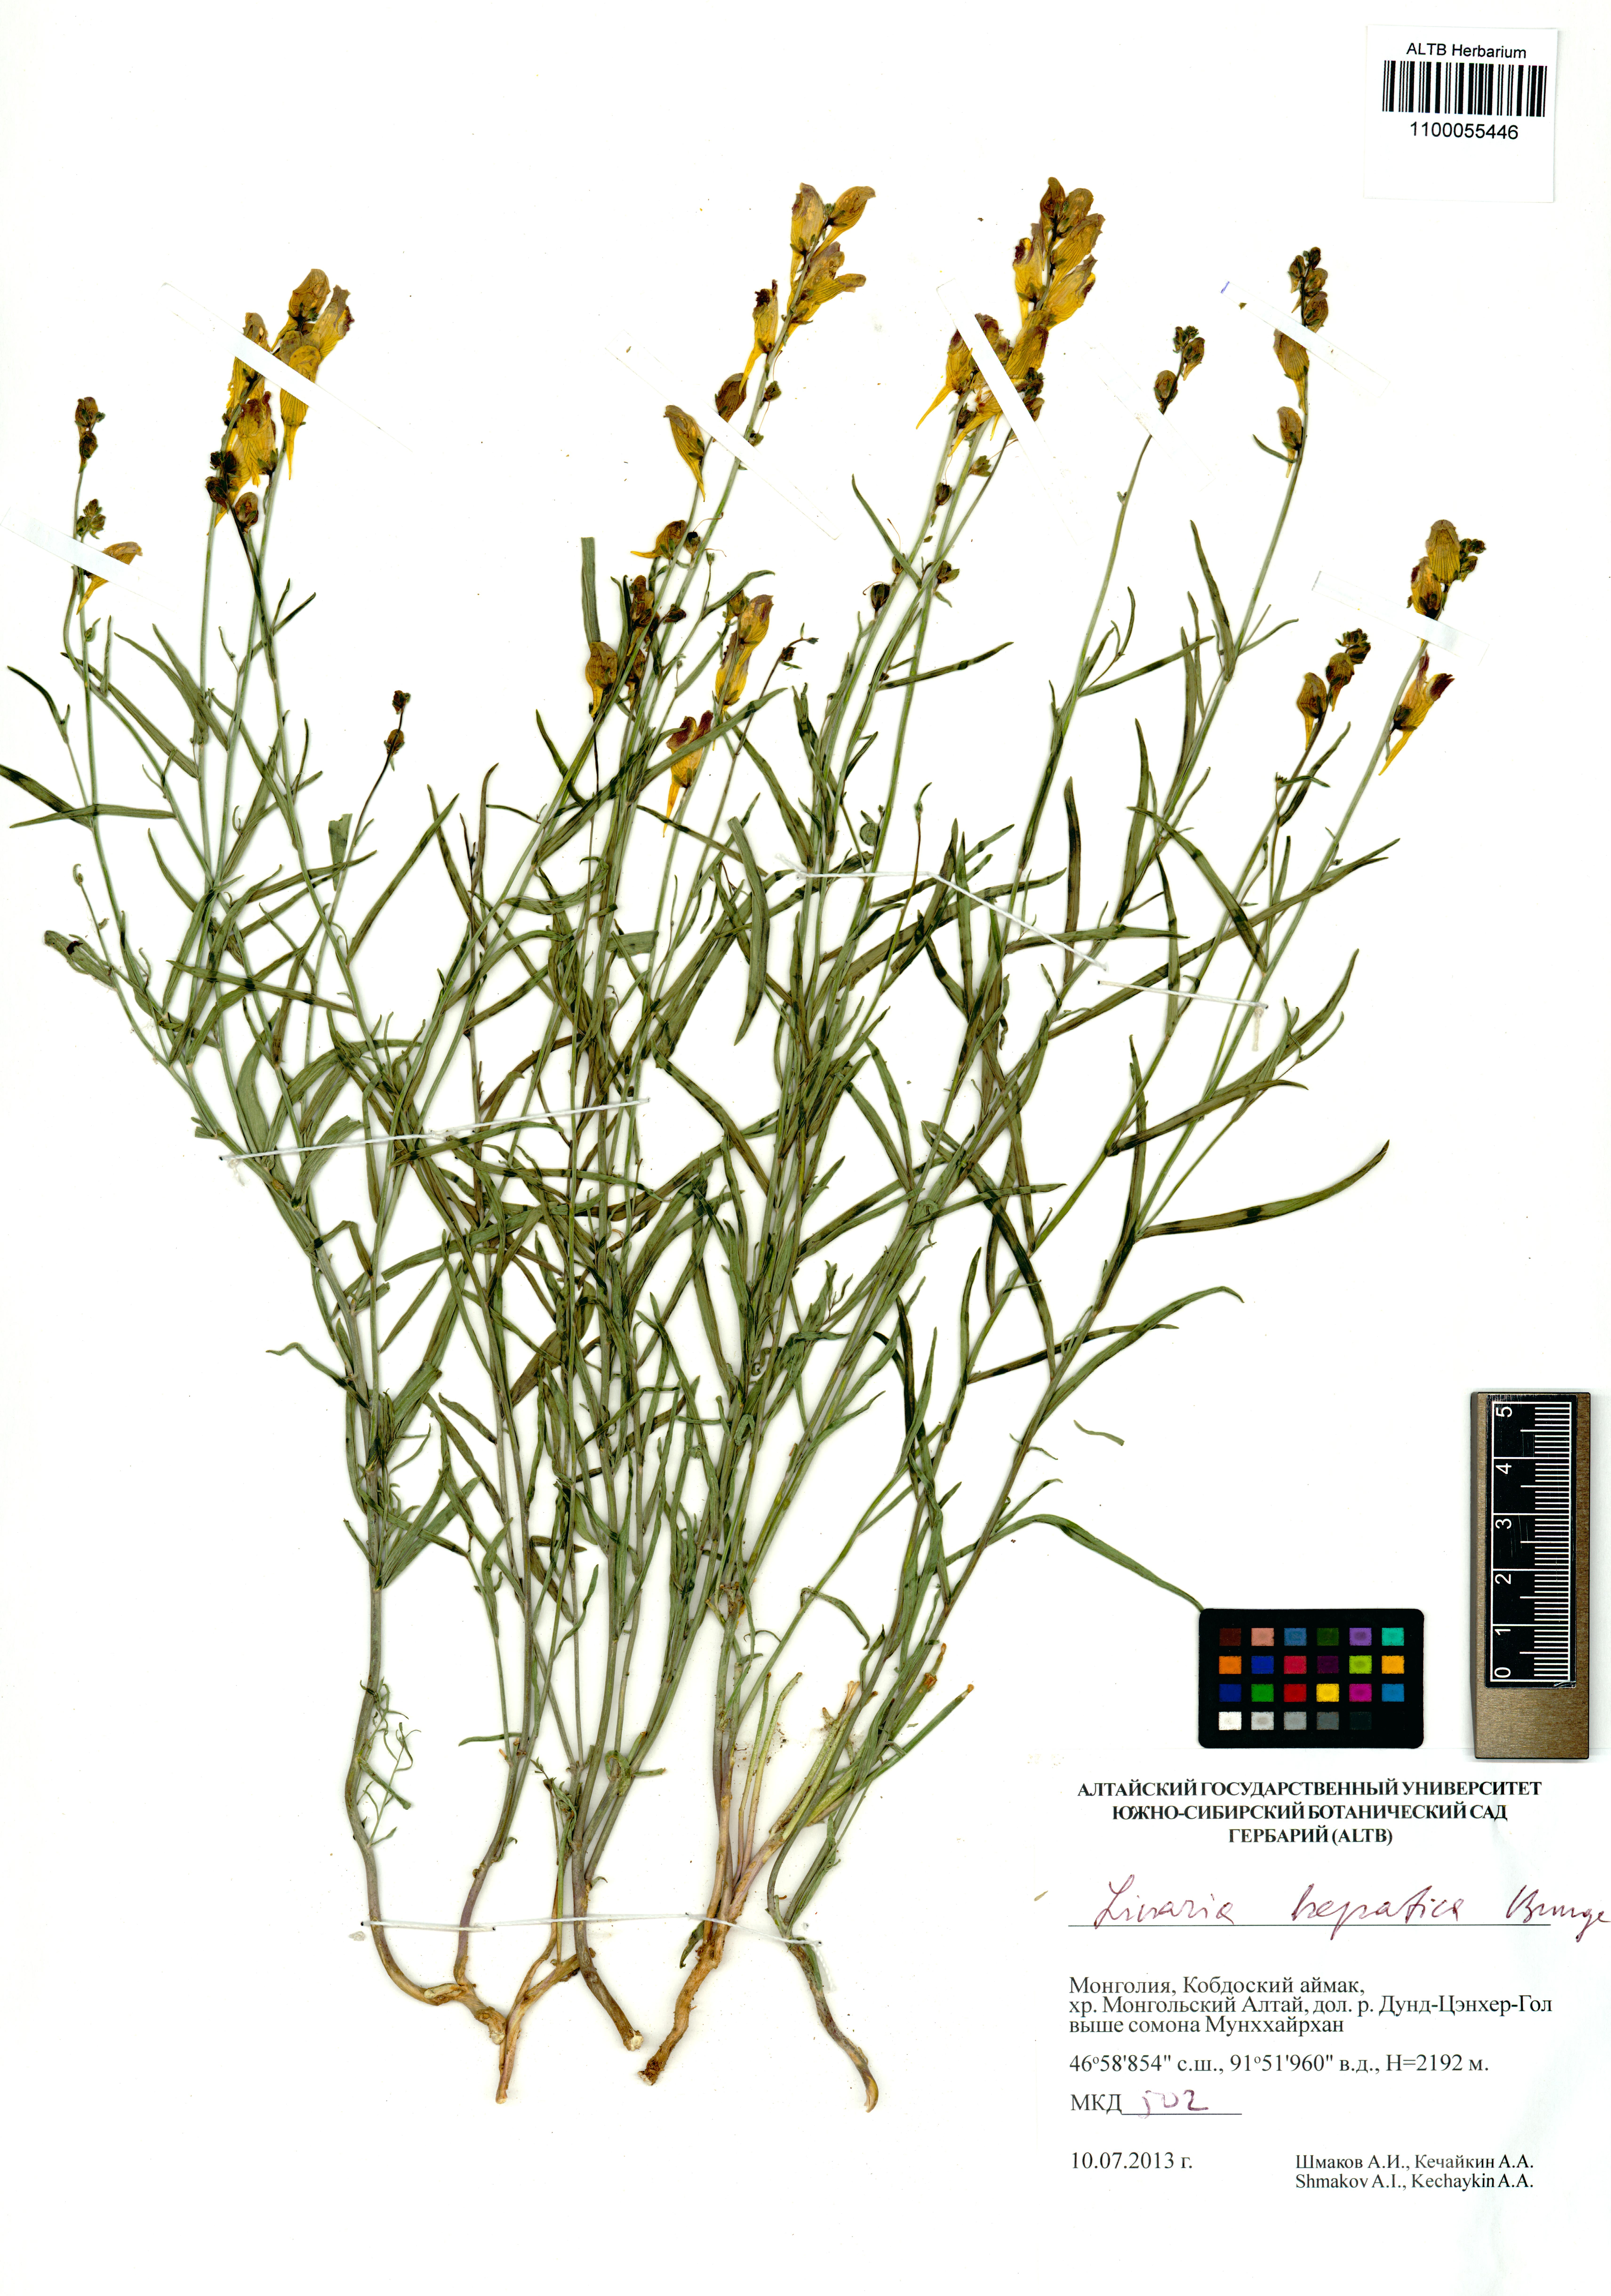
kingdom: Plantae
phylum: Tracheophyta
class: Magnoliopsida
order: Lamiales
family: Plantaginaceae
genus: Linaria
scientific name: Linaria hepatica
